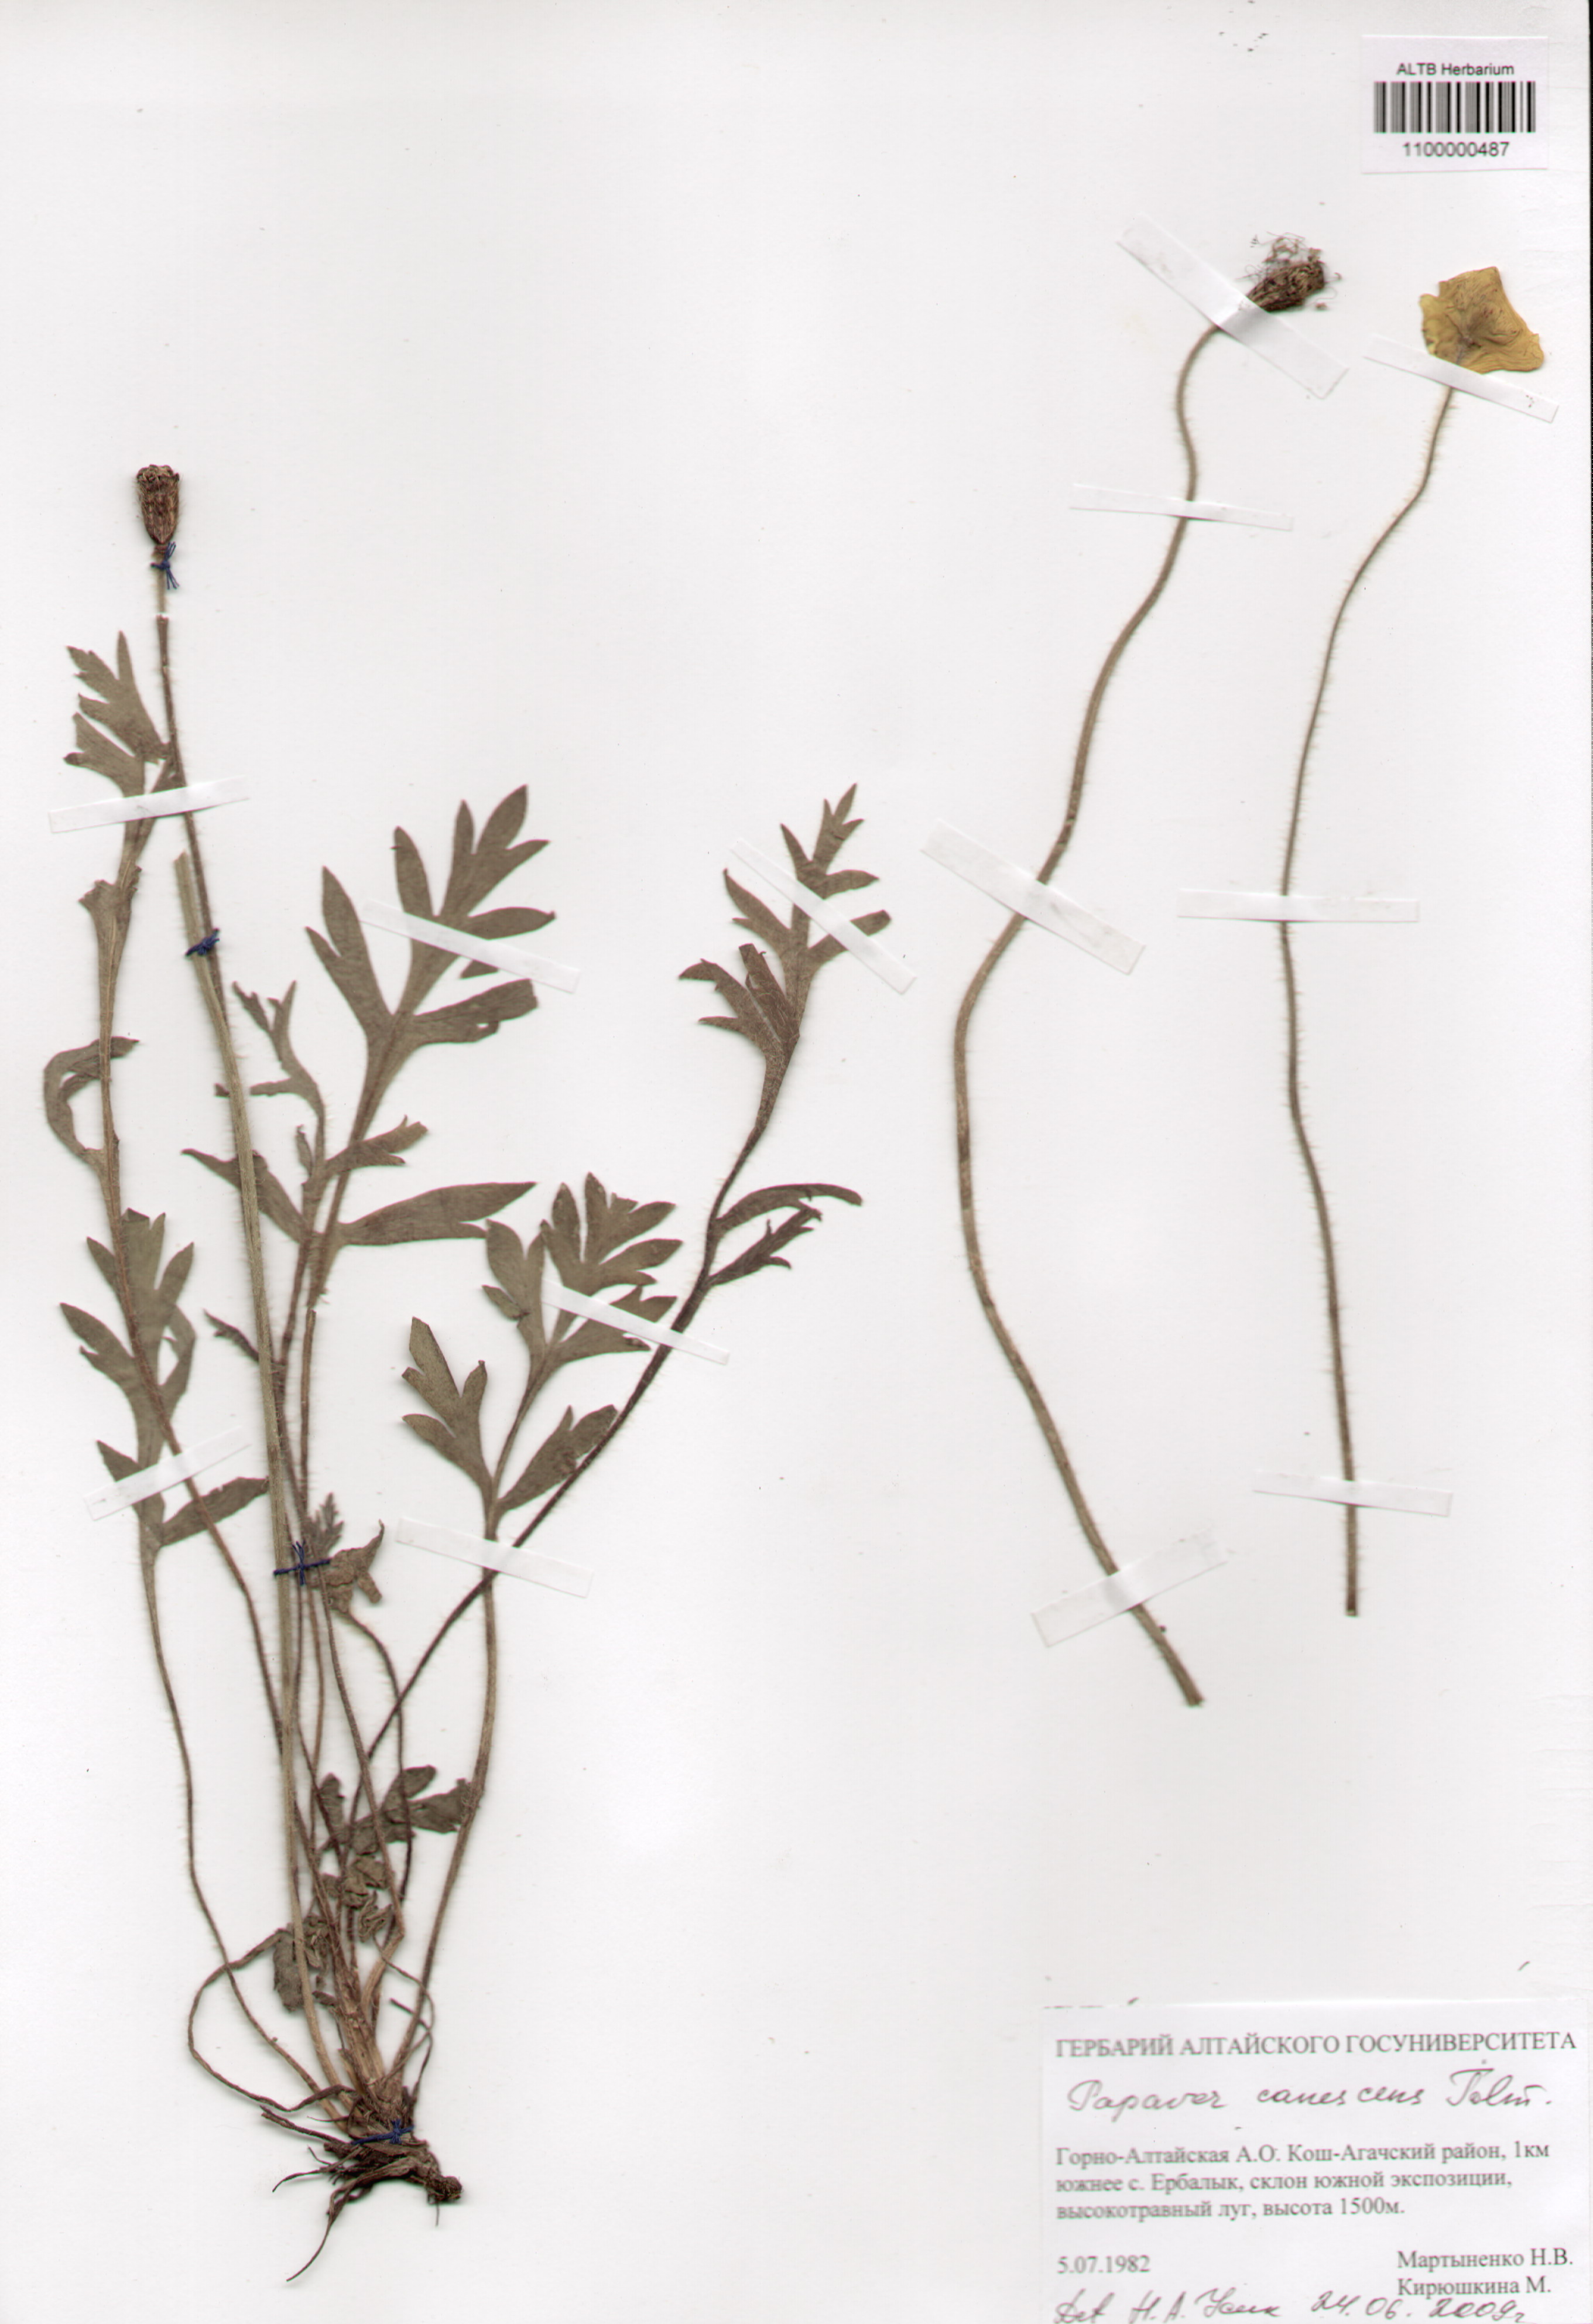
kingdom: Plantae
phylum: Tracheophyta
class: Magnoliopsida
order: Ranunculales
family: Papaveraceae
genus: Papaver
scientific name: Papaver canescens
